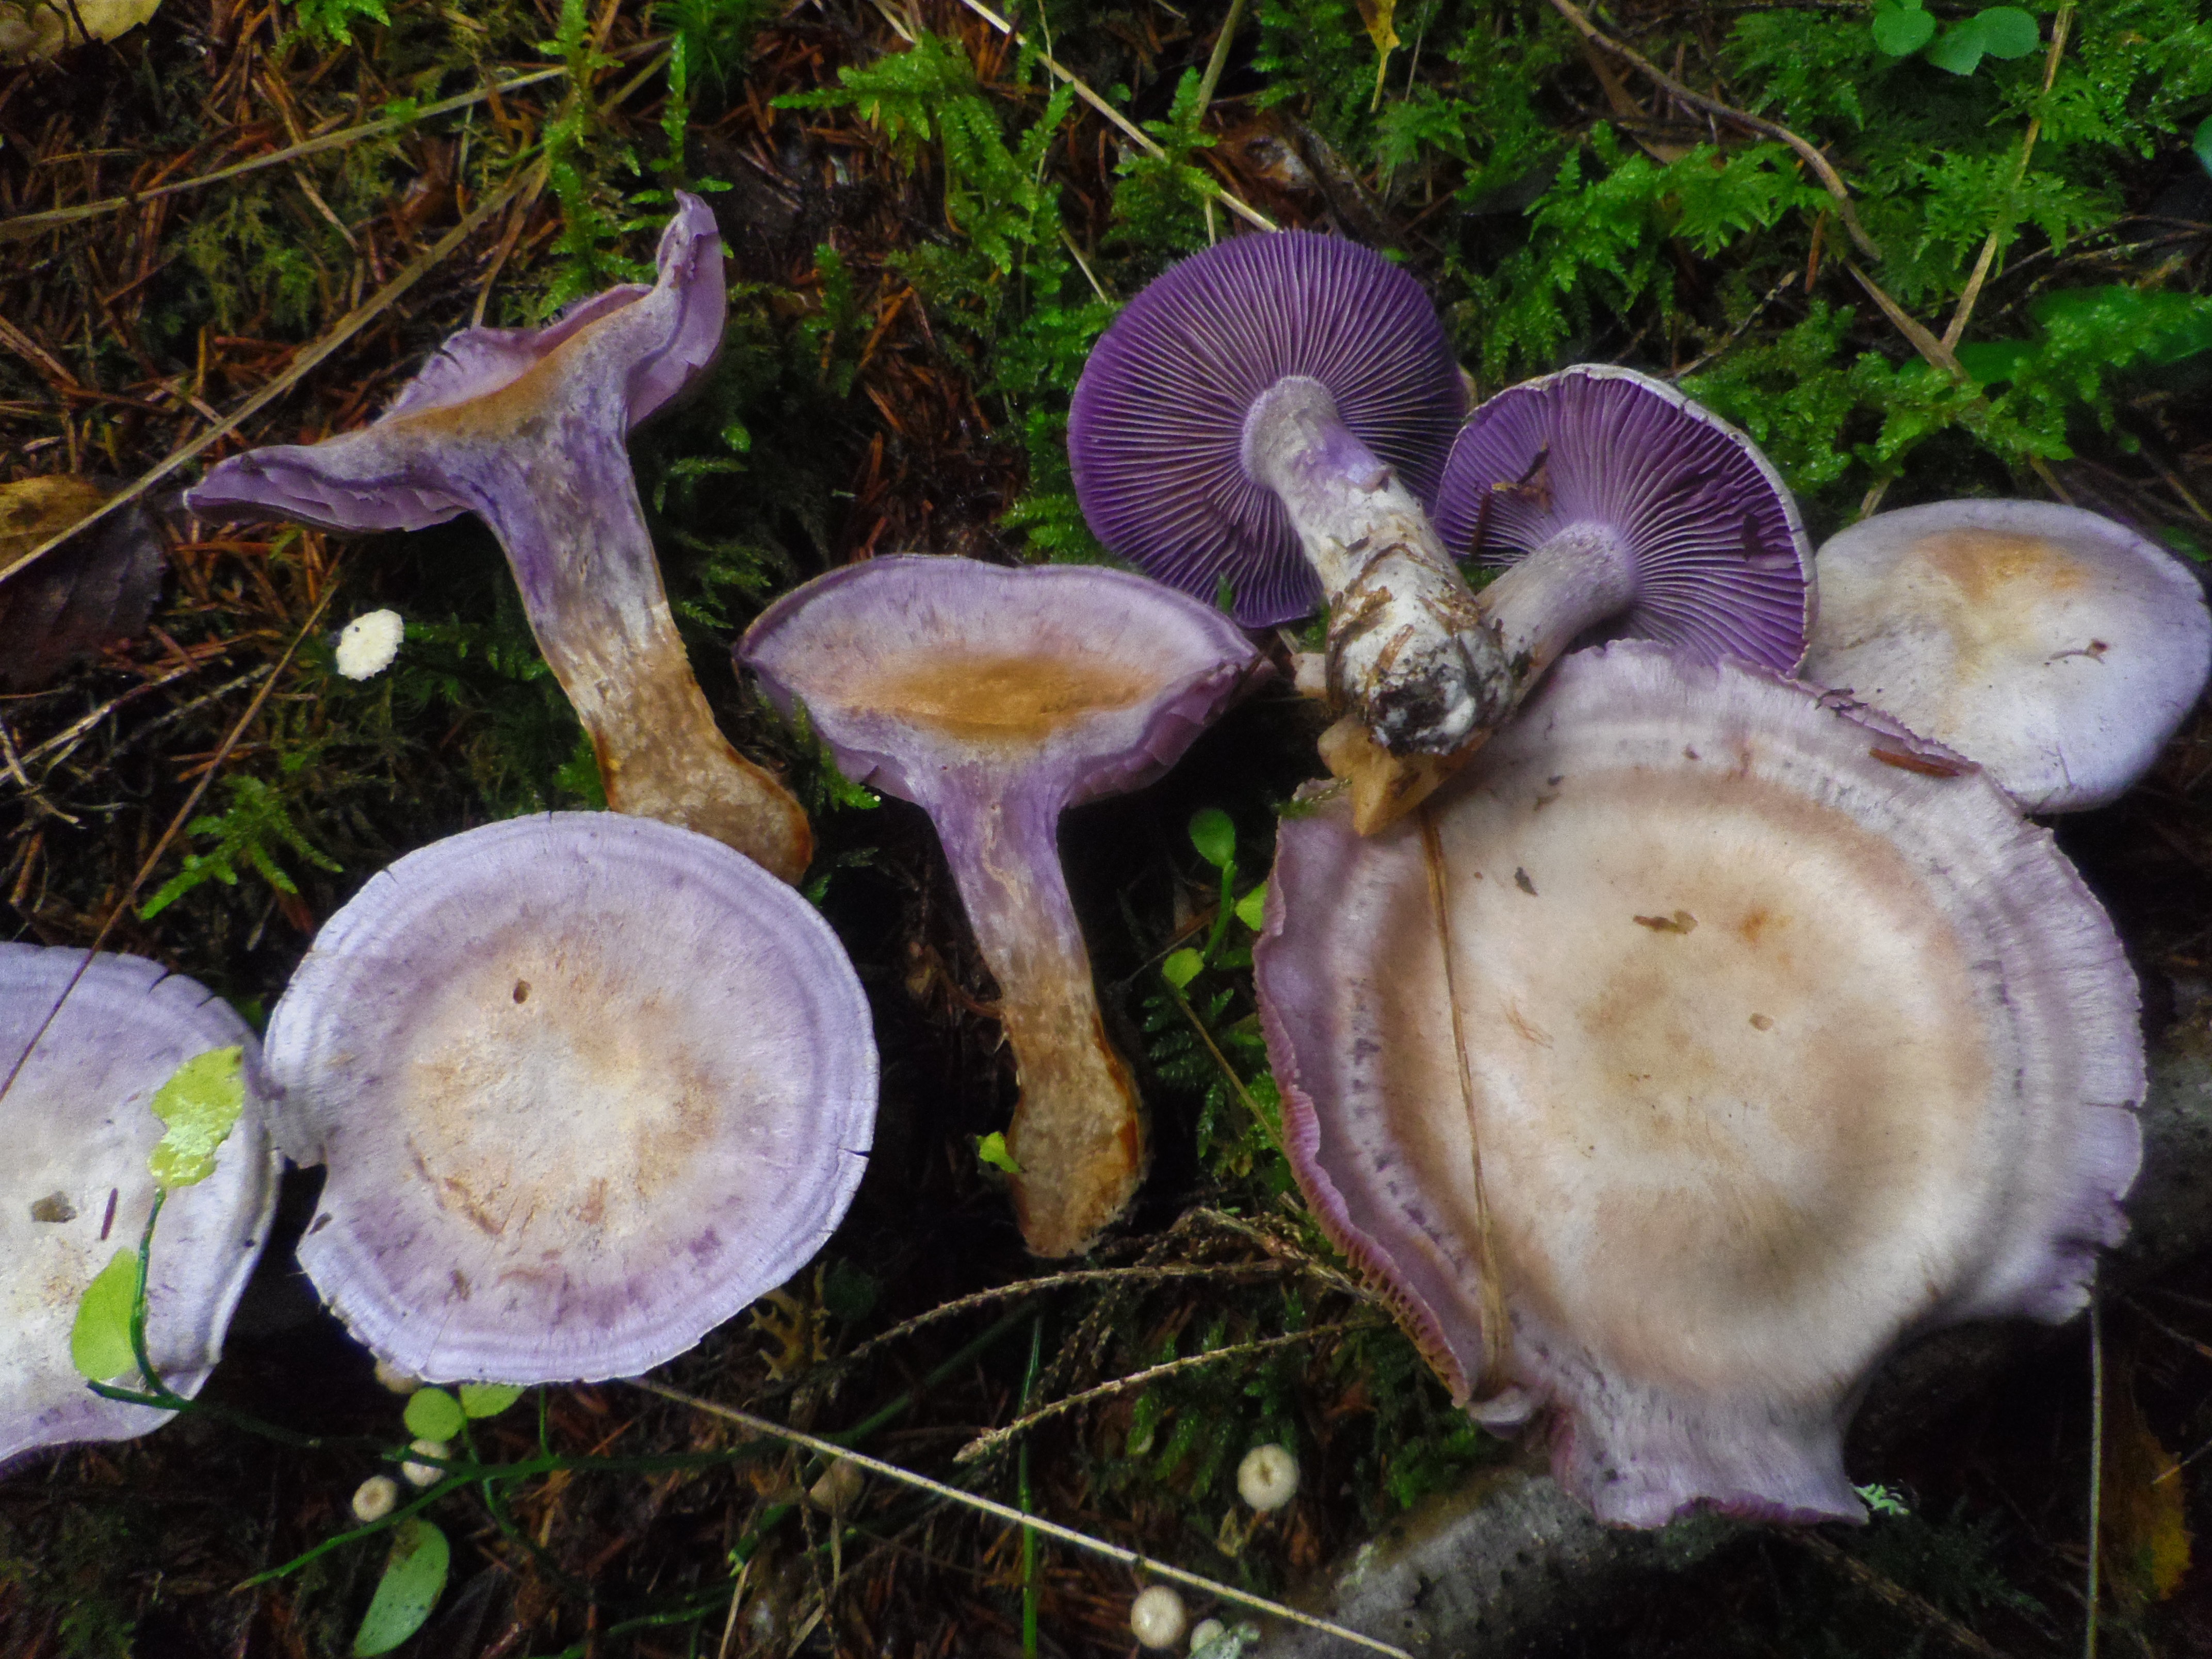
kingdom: Fungi
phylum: Basidiomycota
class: Agaricomycetes
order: Agaricales
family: Cortinariaceae
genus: Cortinarius
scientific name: Cortinarius camphoratus
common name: Goatcheese webcap
